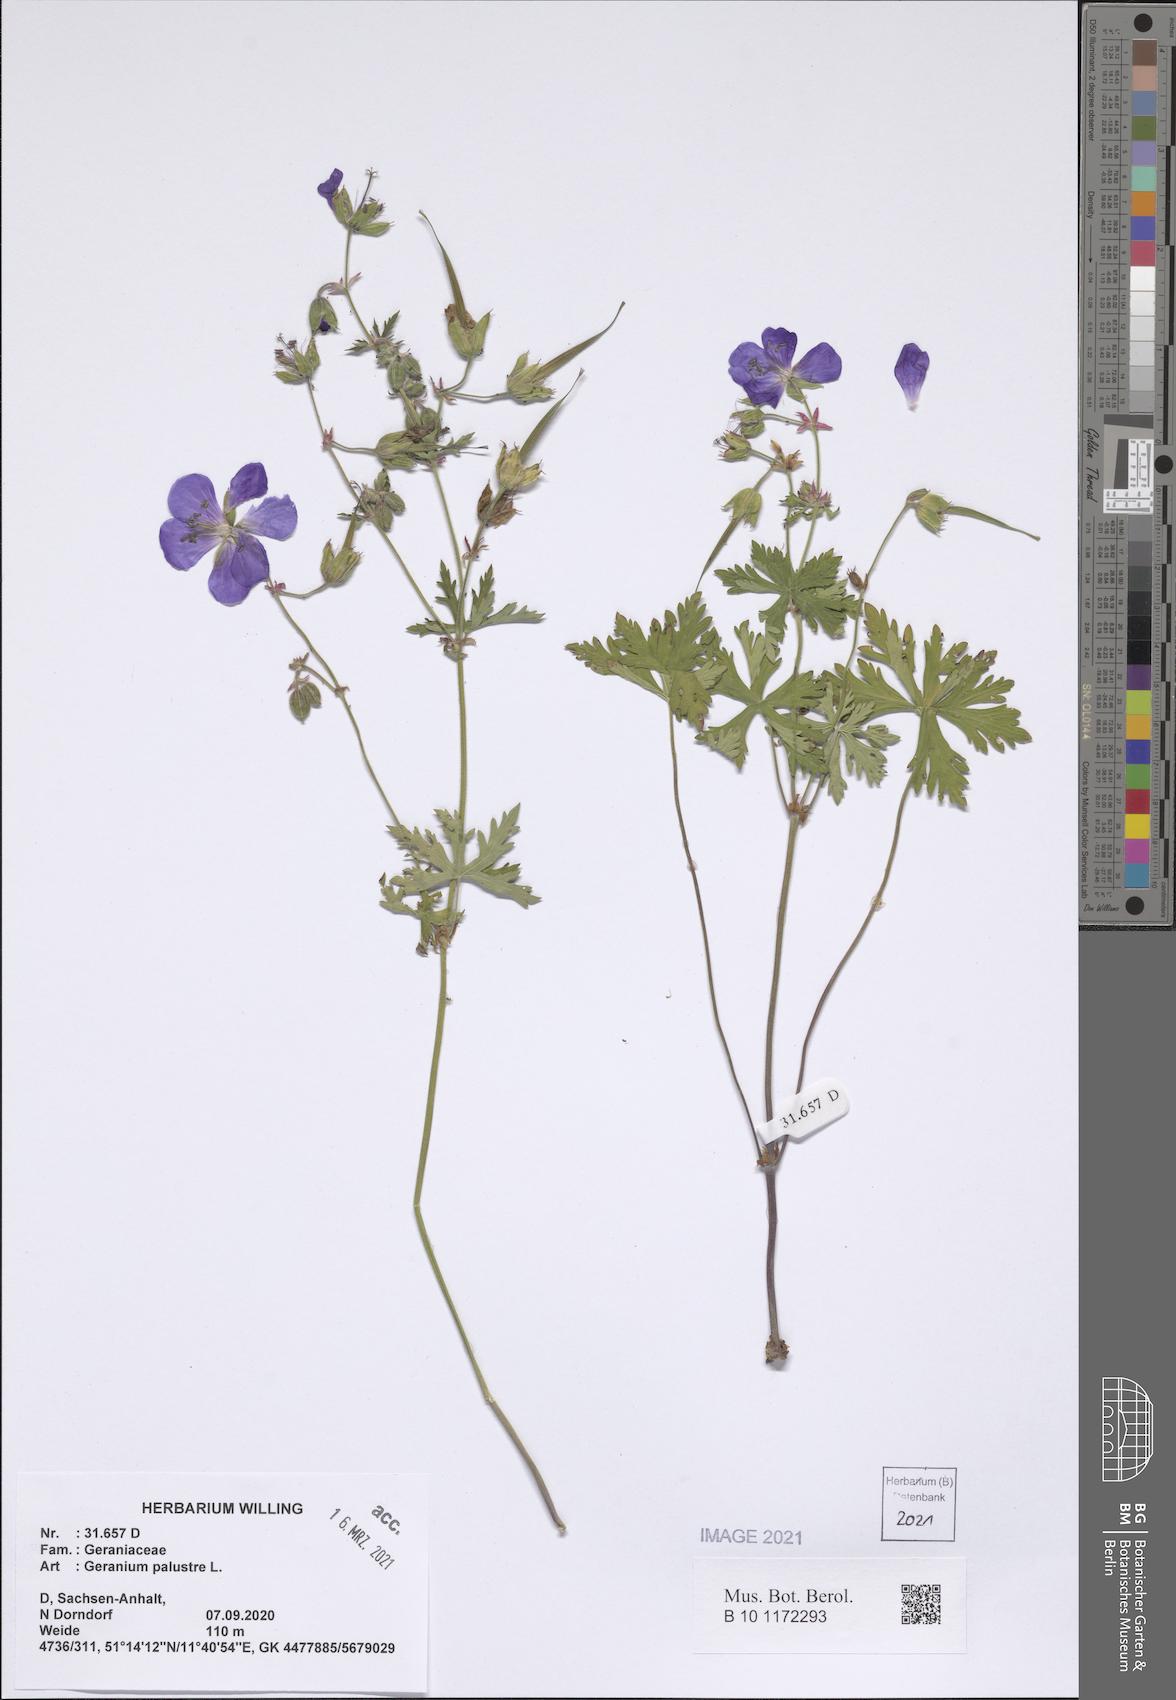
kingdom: Plantae
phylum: Tracheophyta
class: Magnoliopsida
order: Geraniales
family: Geraniaceae
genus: Geranium
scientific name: Geranium palustre
